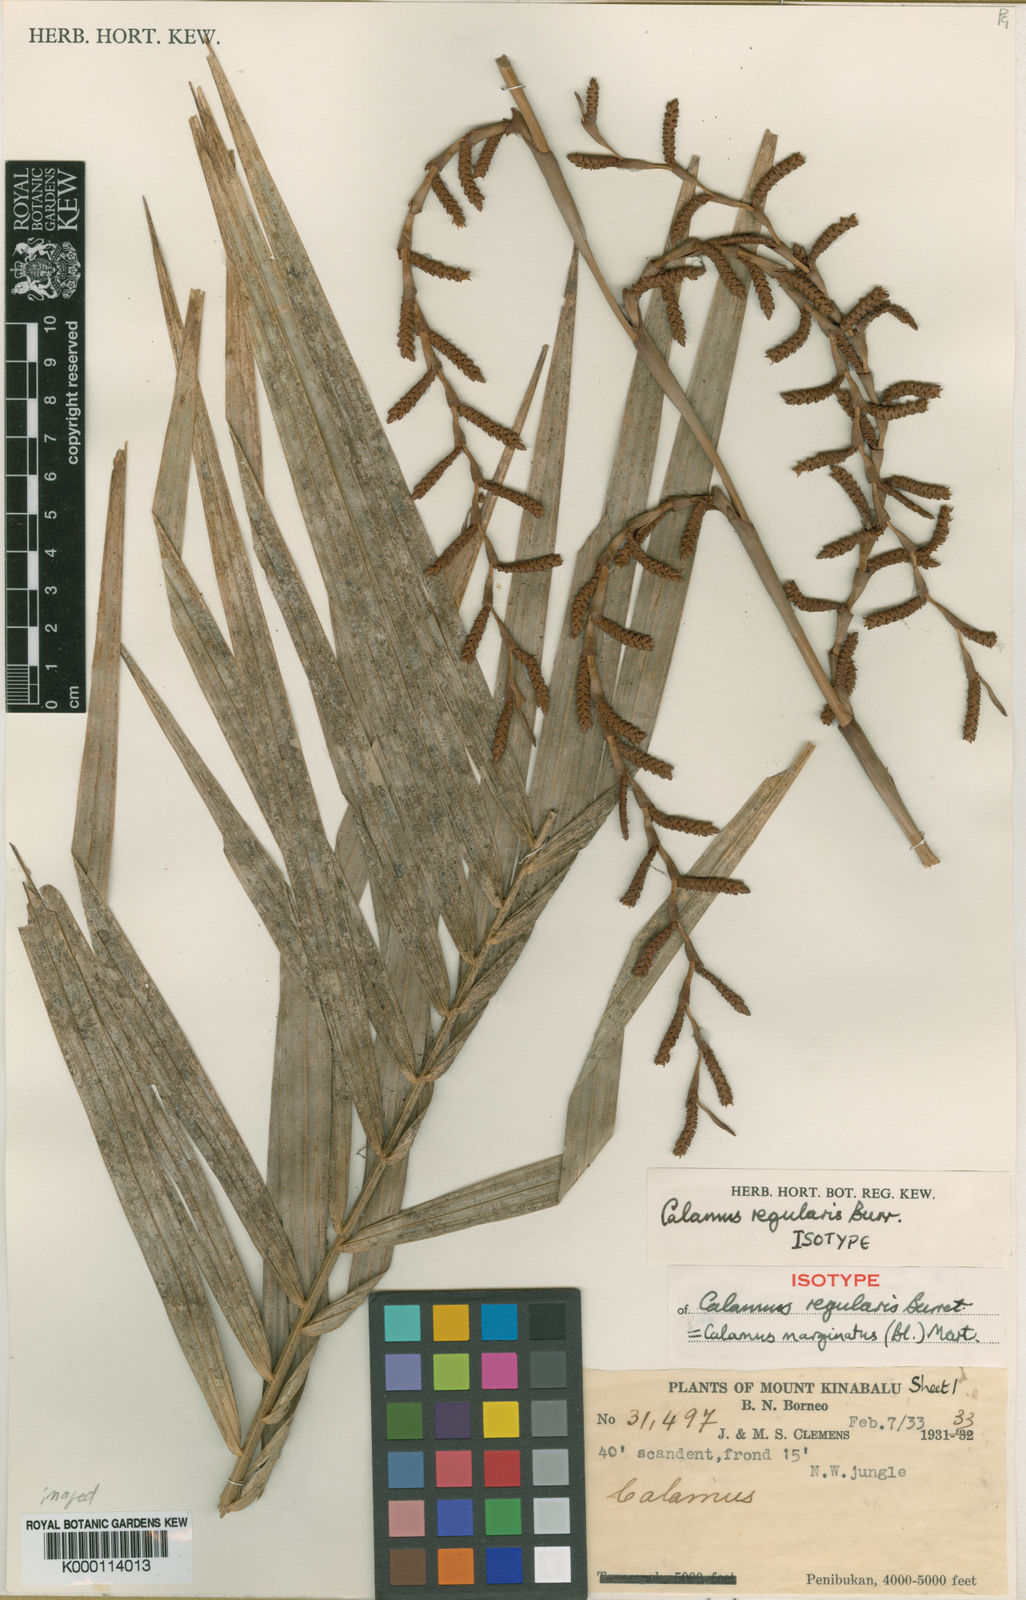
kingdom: Plantae
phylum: Tracheophyta
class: Liliopsida
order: Arecales
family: Arecaceae
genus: Calamus
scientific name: Calamus
